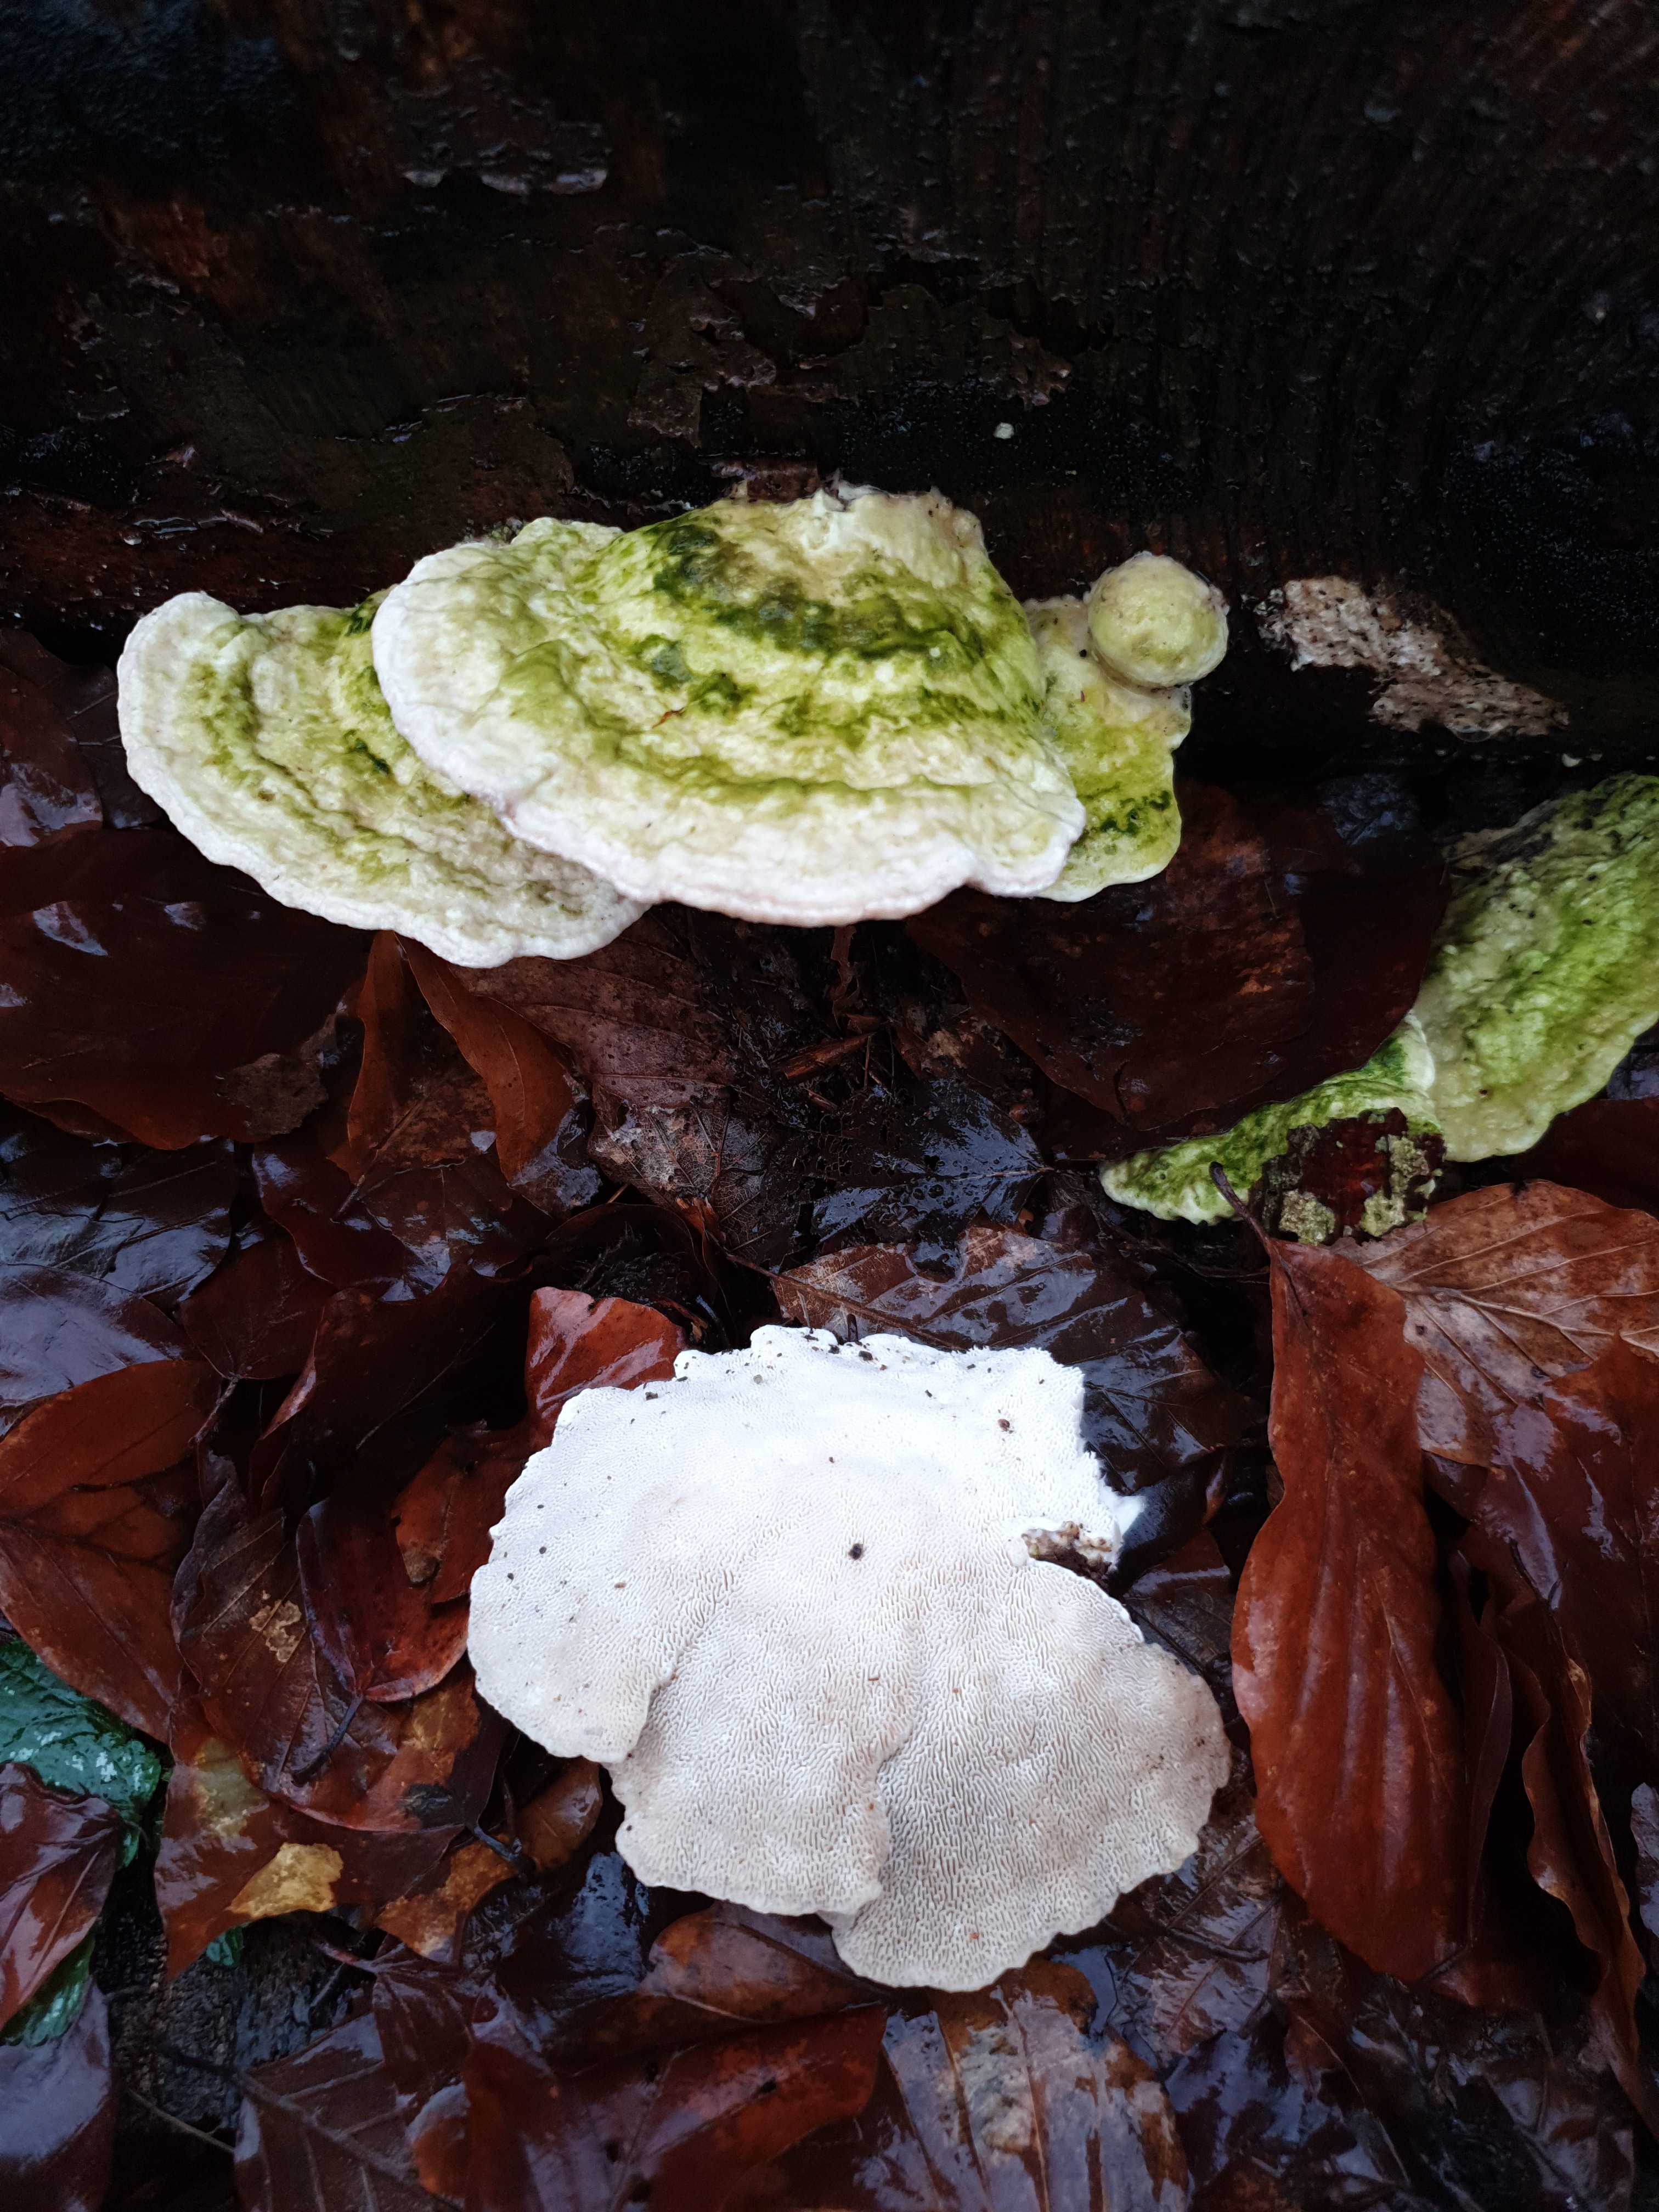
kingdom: Fungi
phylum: Basidiomycota
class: Agaricomycetes
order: Polyporales
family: Polyporaceae
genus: Trametes
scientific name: Trametes gibbosa
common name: puklet læderporesvamp
